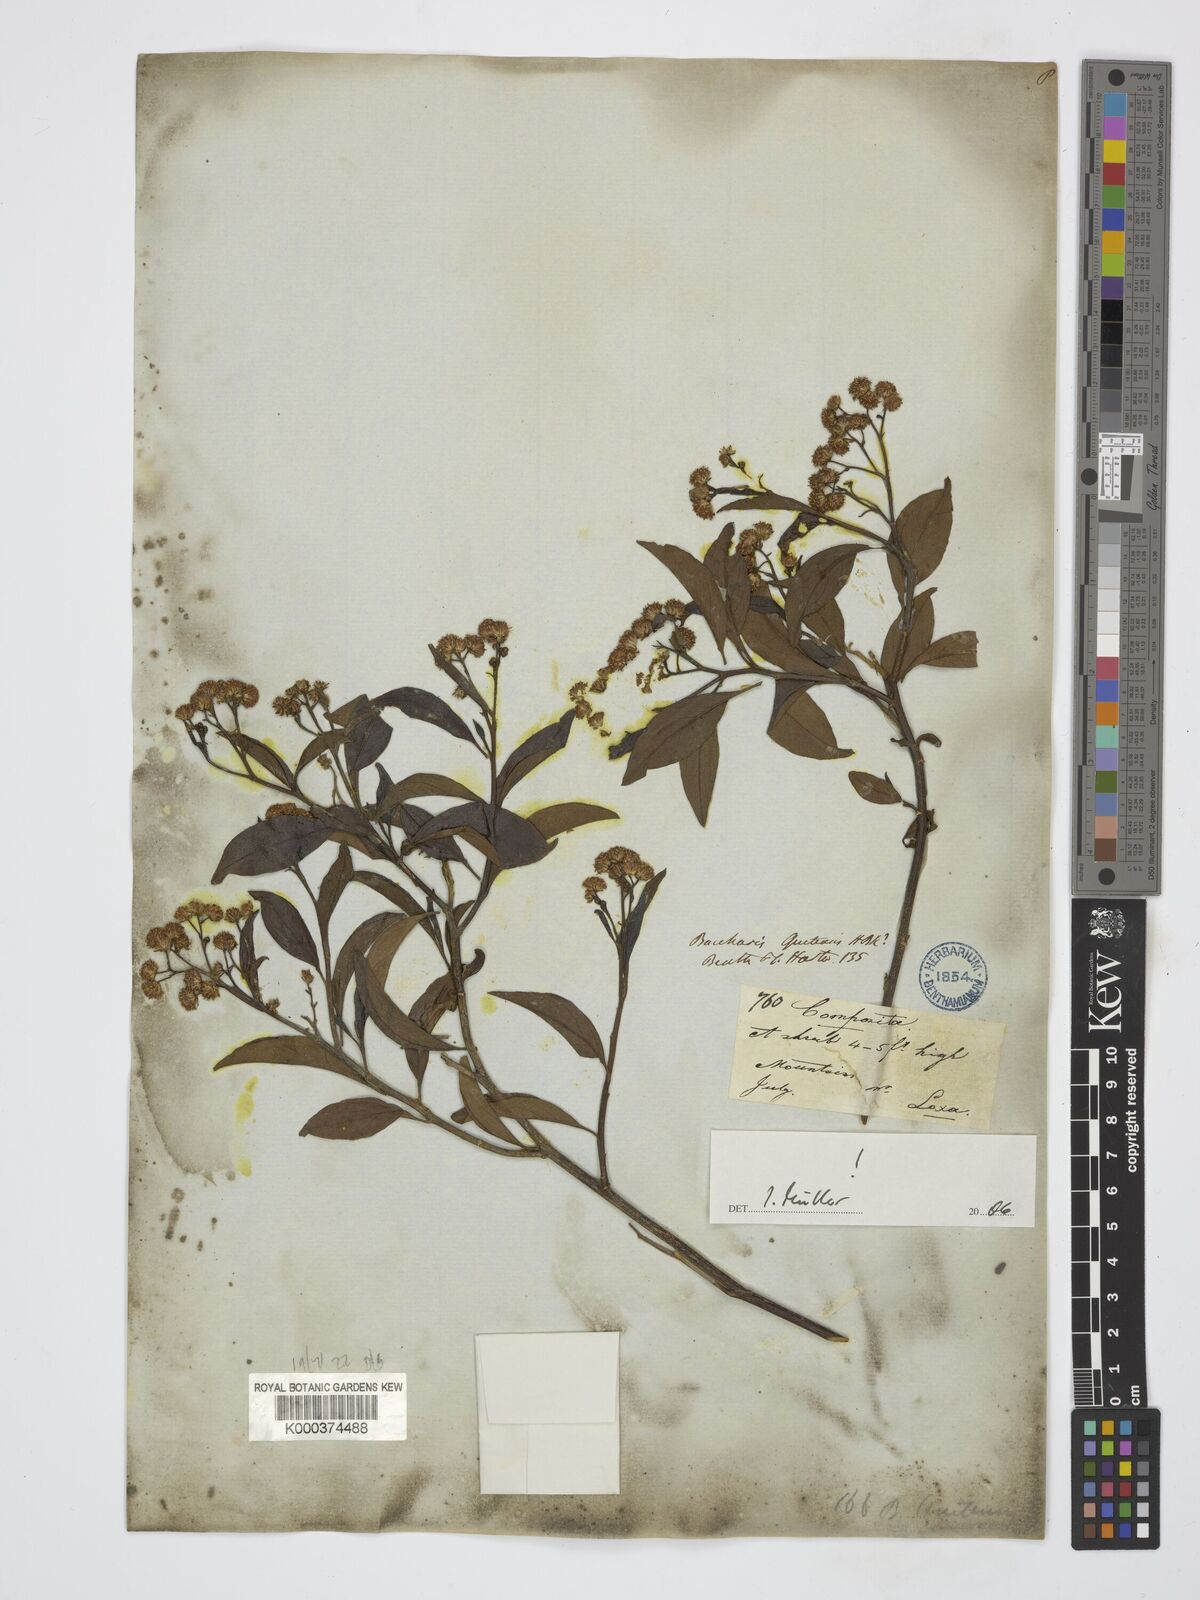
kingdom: Plantae
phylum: Tracheophyta
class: Magnoliopsida
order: Asterales
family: Asteraceae
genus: Baccharis
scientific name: Baccharis quitensis
